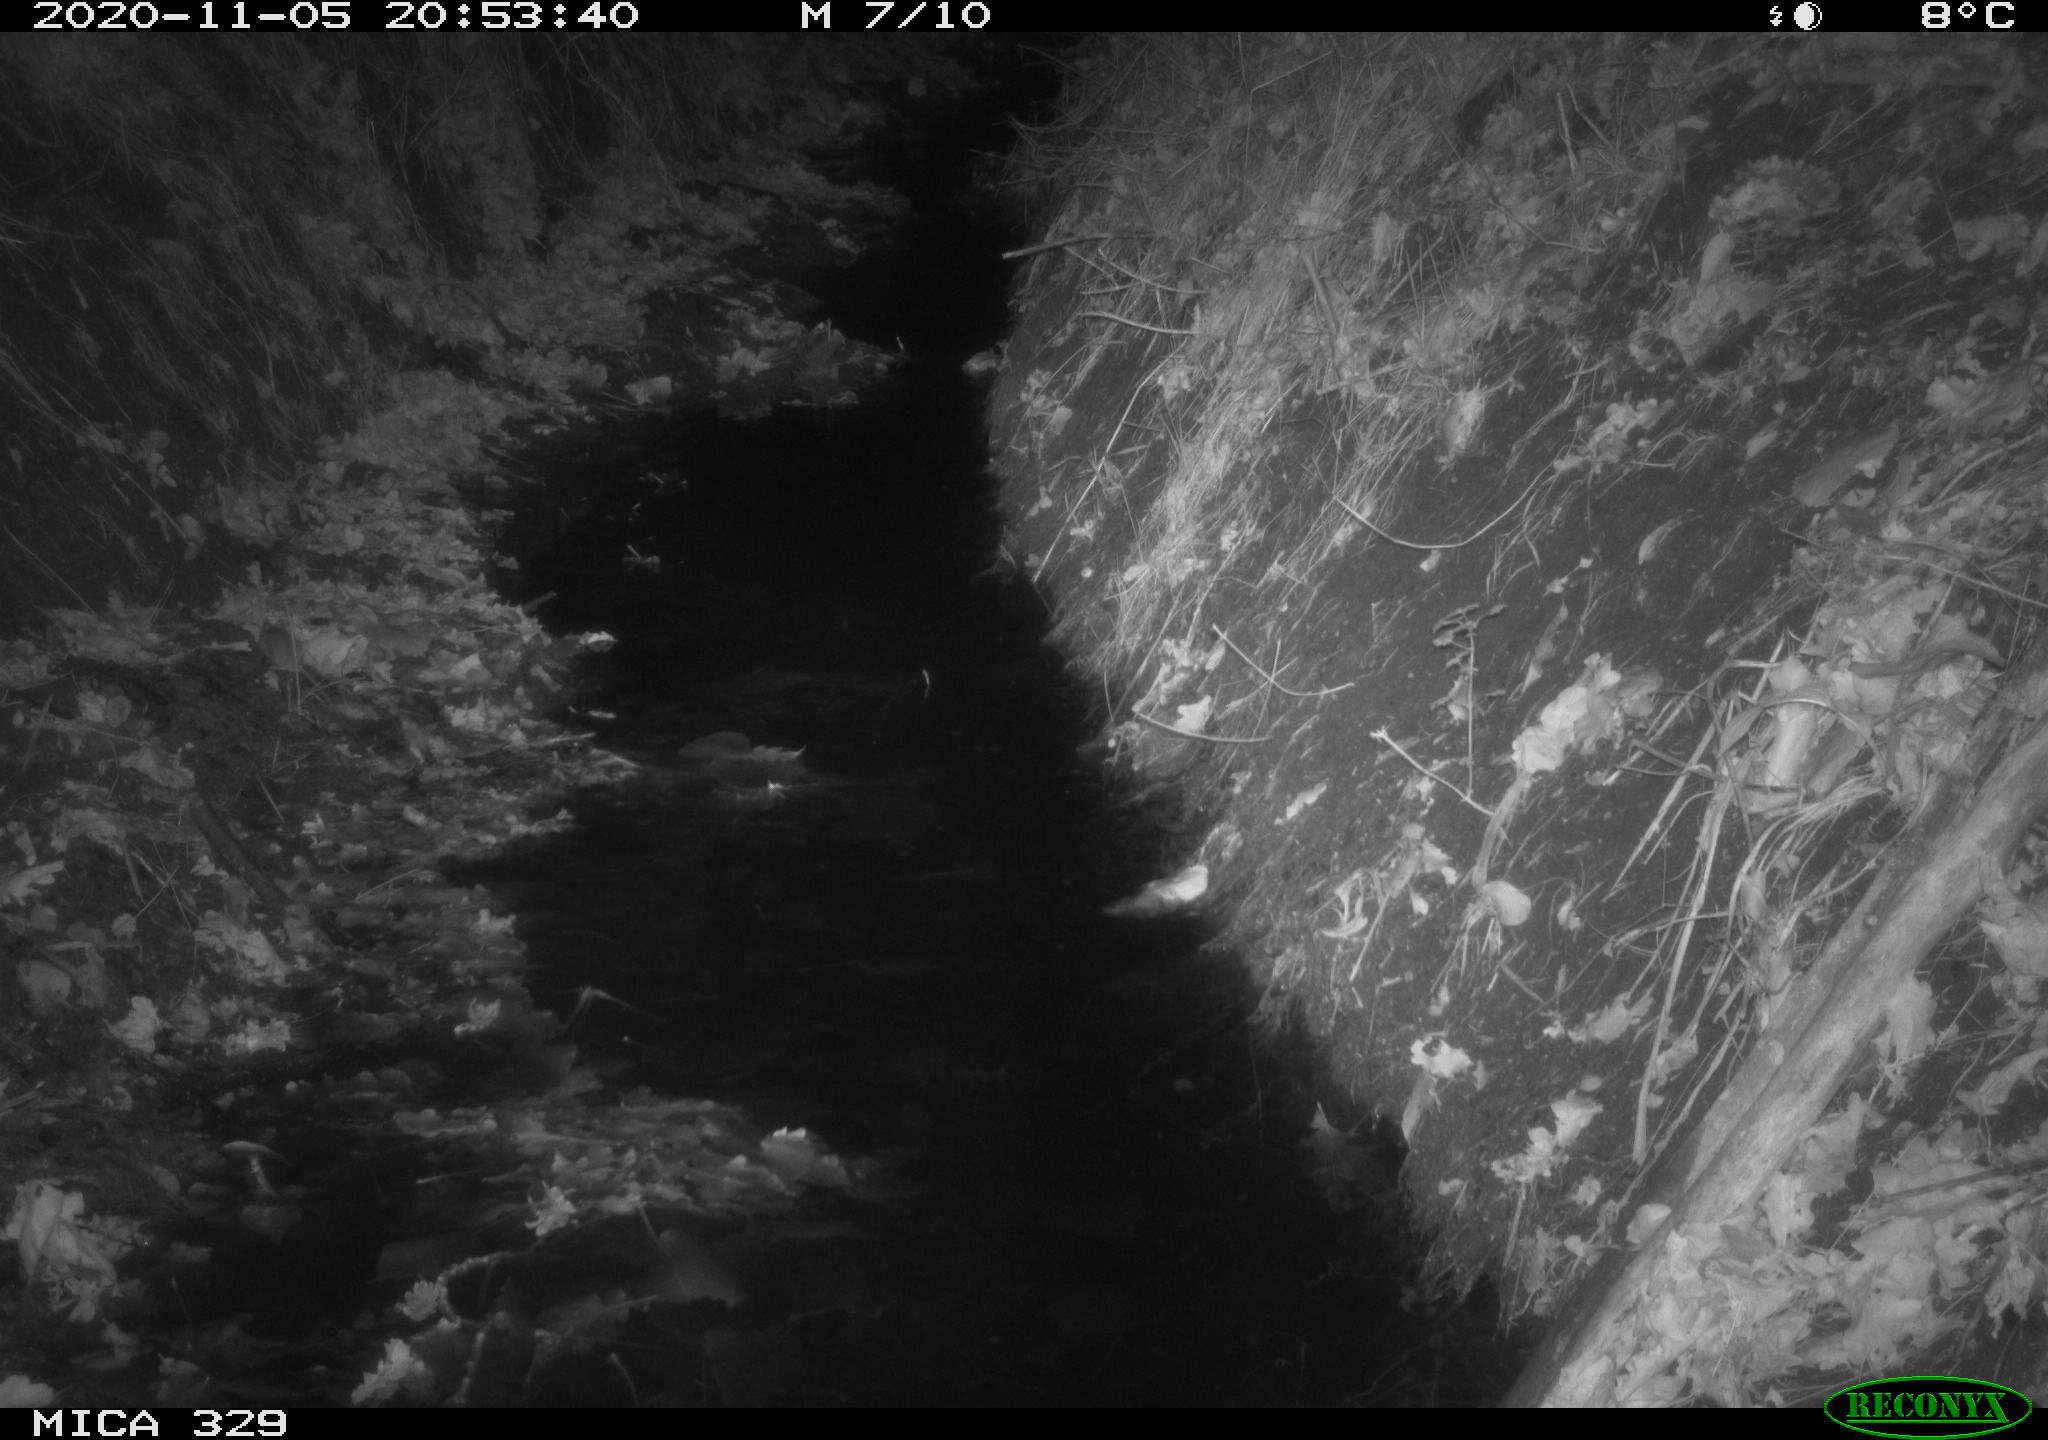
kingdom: Animalia
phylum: Chordata
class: Mammalia
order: Rodentia
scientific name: Rodentia
